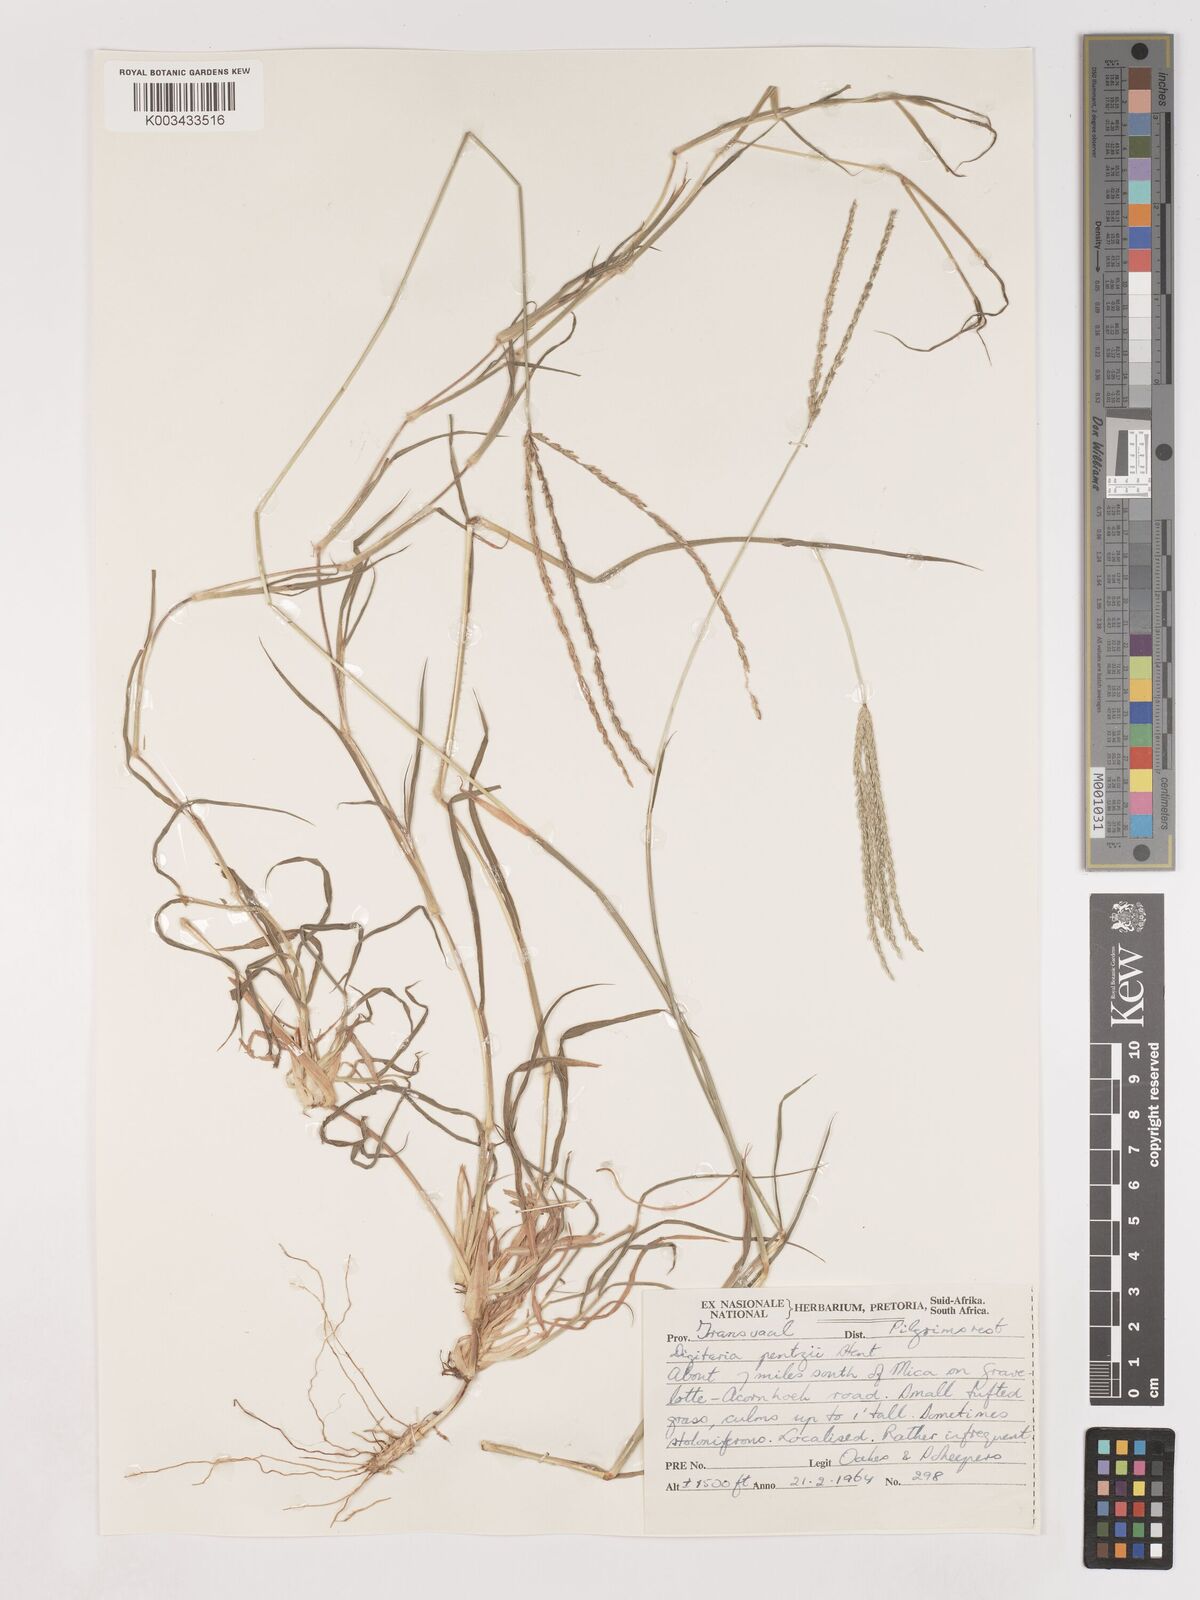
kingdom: Plantae
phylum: Tracheophyta
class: Liliopsida
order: Poales
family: Poaceae
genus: Digitaria
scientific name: Digitaria eriantha
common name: Digitgrass
